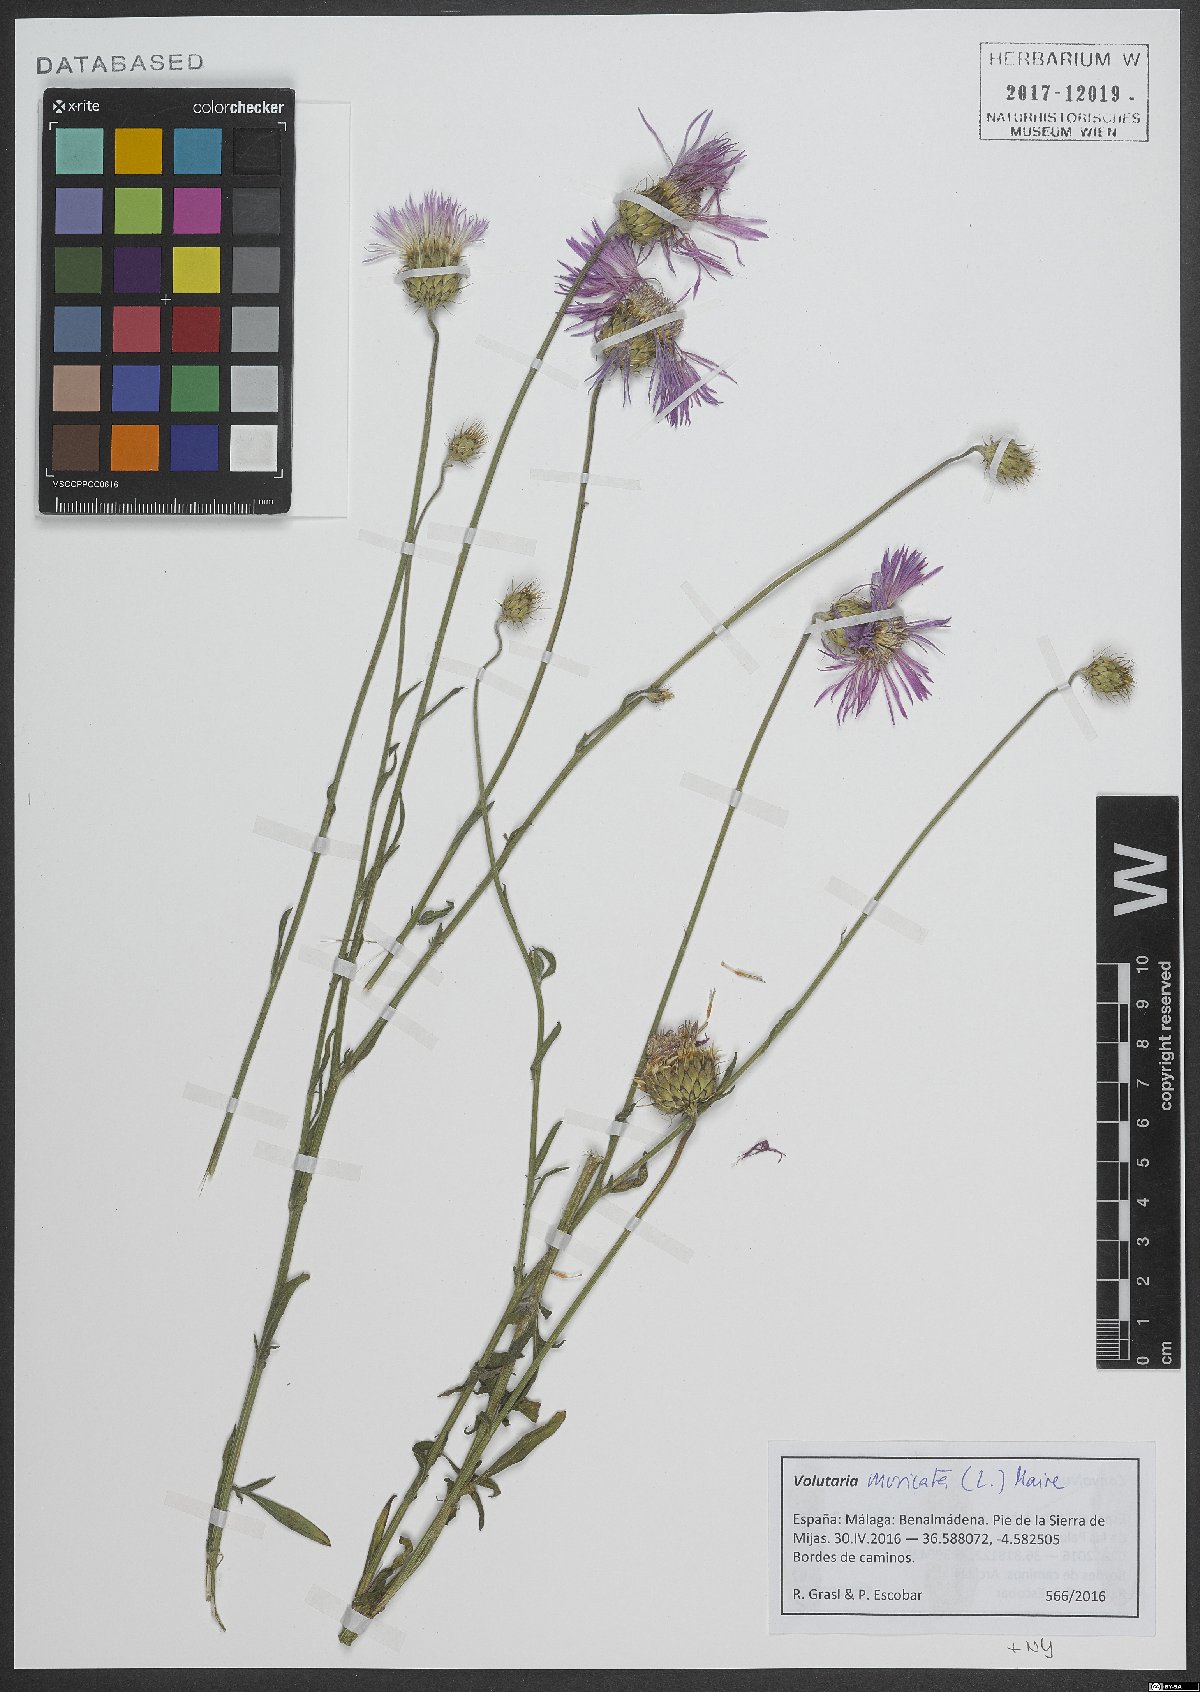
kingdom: Plantae
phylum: Tracheophyta
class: Magnoliopsida
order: Asterales
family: Asteraceae
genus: Volutaria
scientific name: Volutaria muricata
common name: Morocco knapweed
